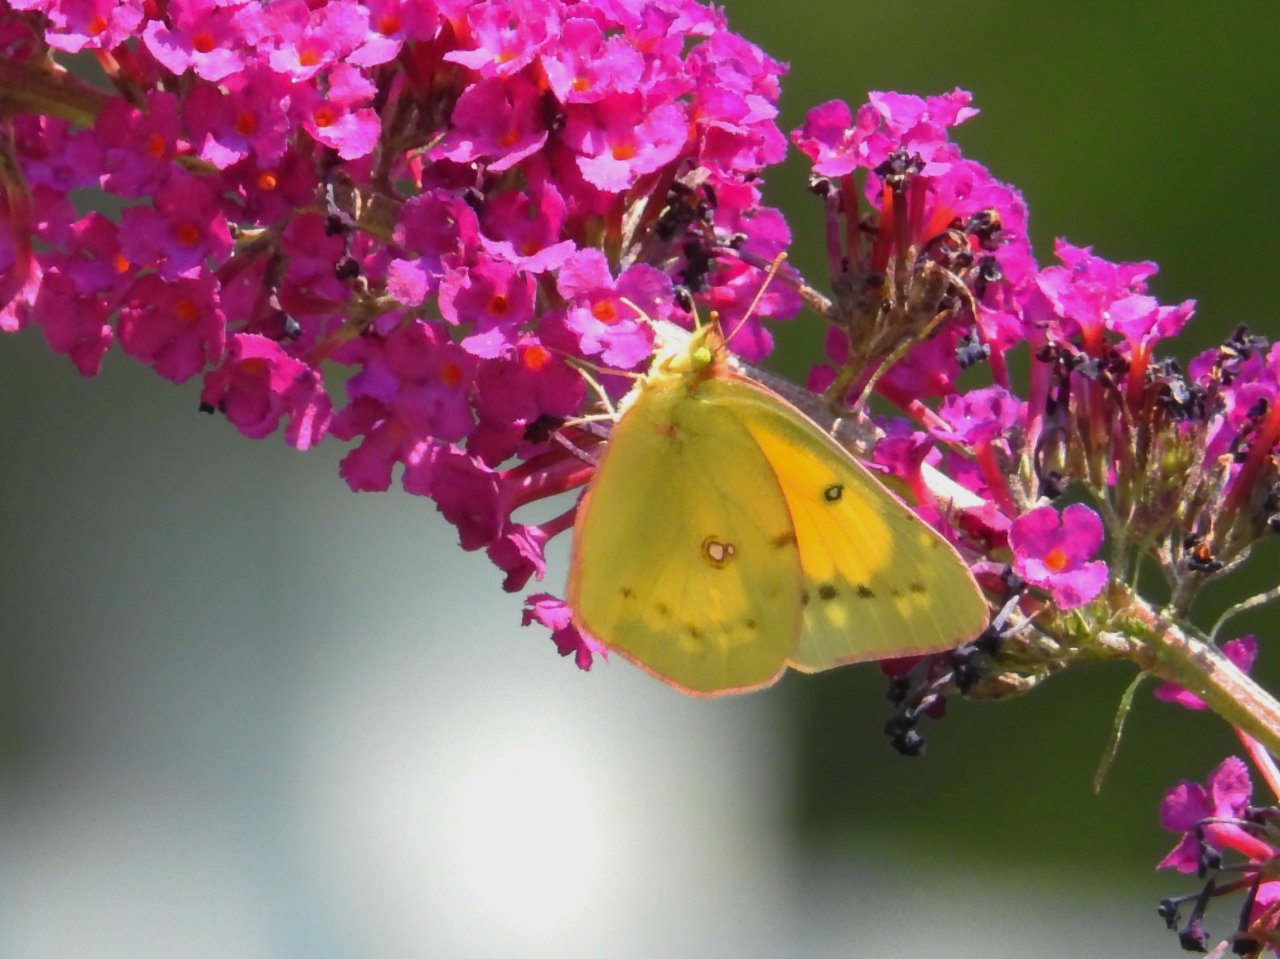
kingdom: Animalia
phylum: Arthropoda
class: Insecta
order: Lepidoptera
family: Pieridae
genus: Colias
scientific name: Colias eurytheme
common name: Orange Sulphur
